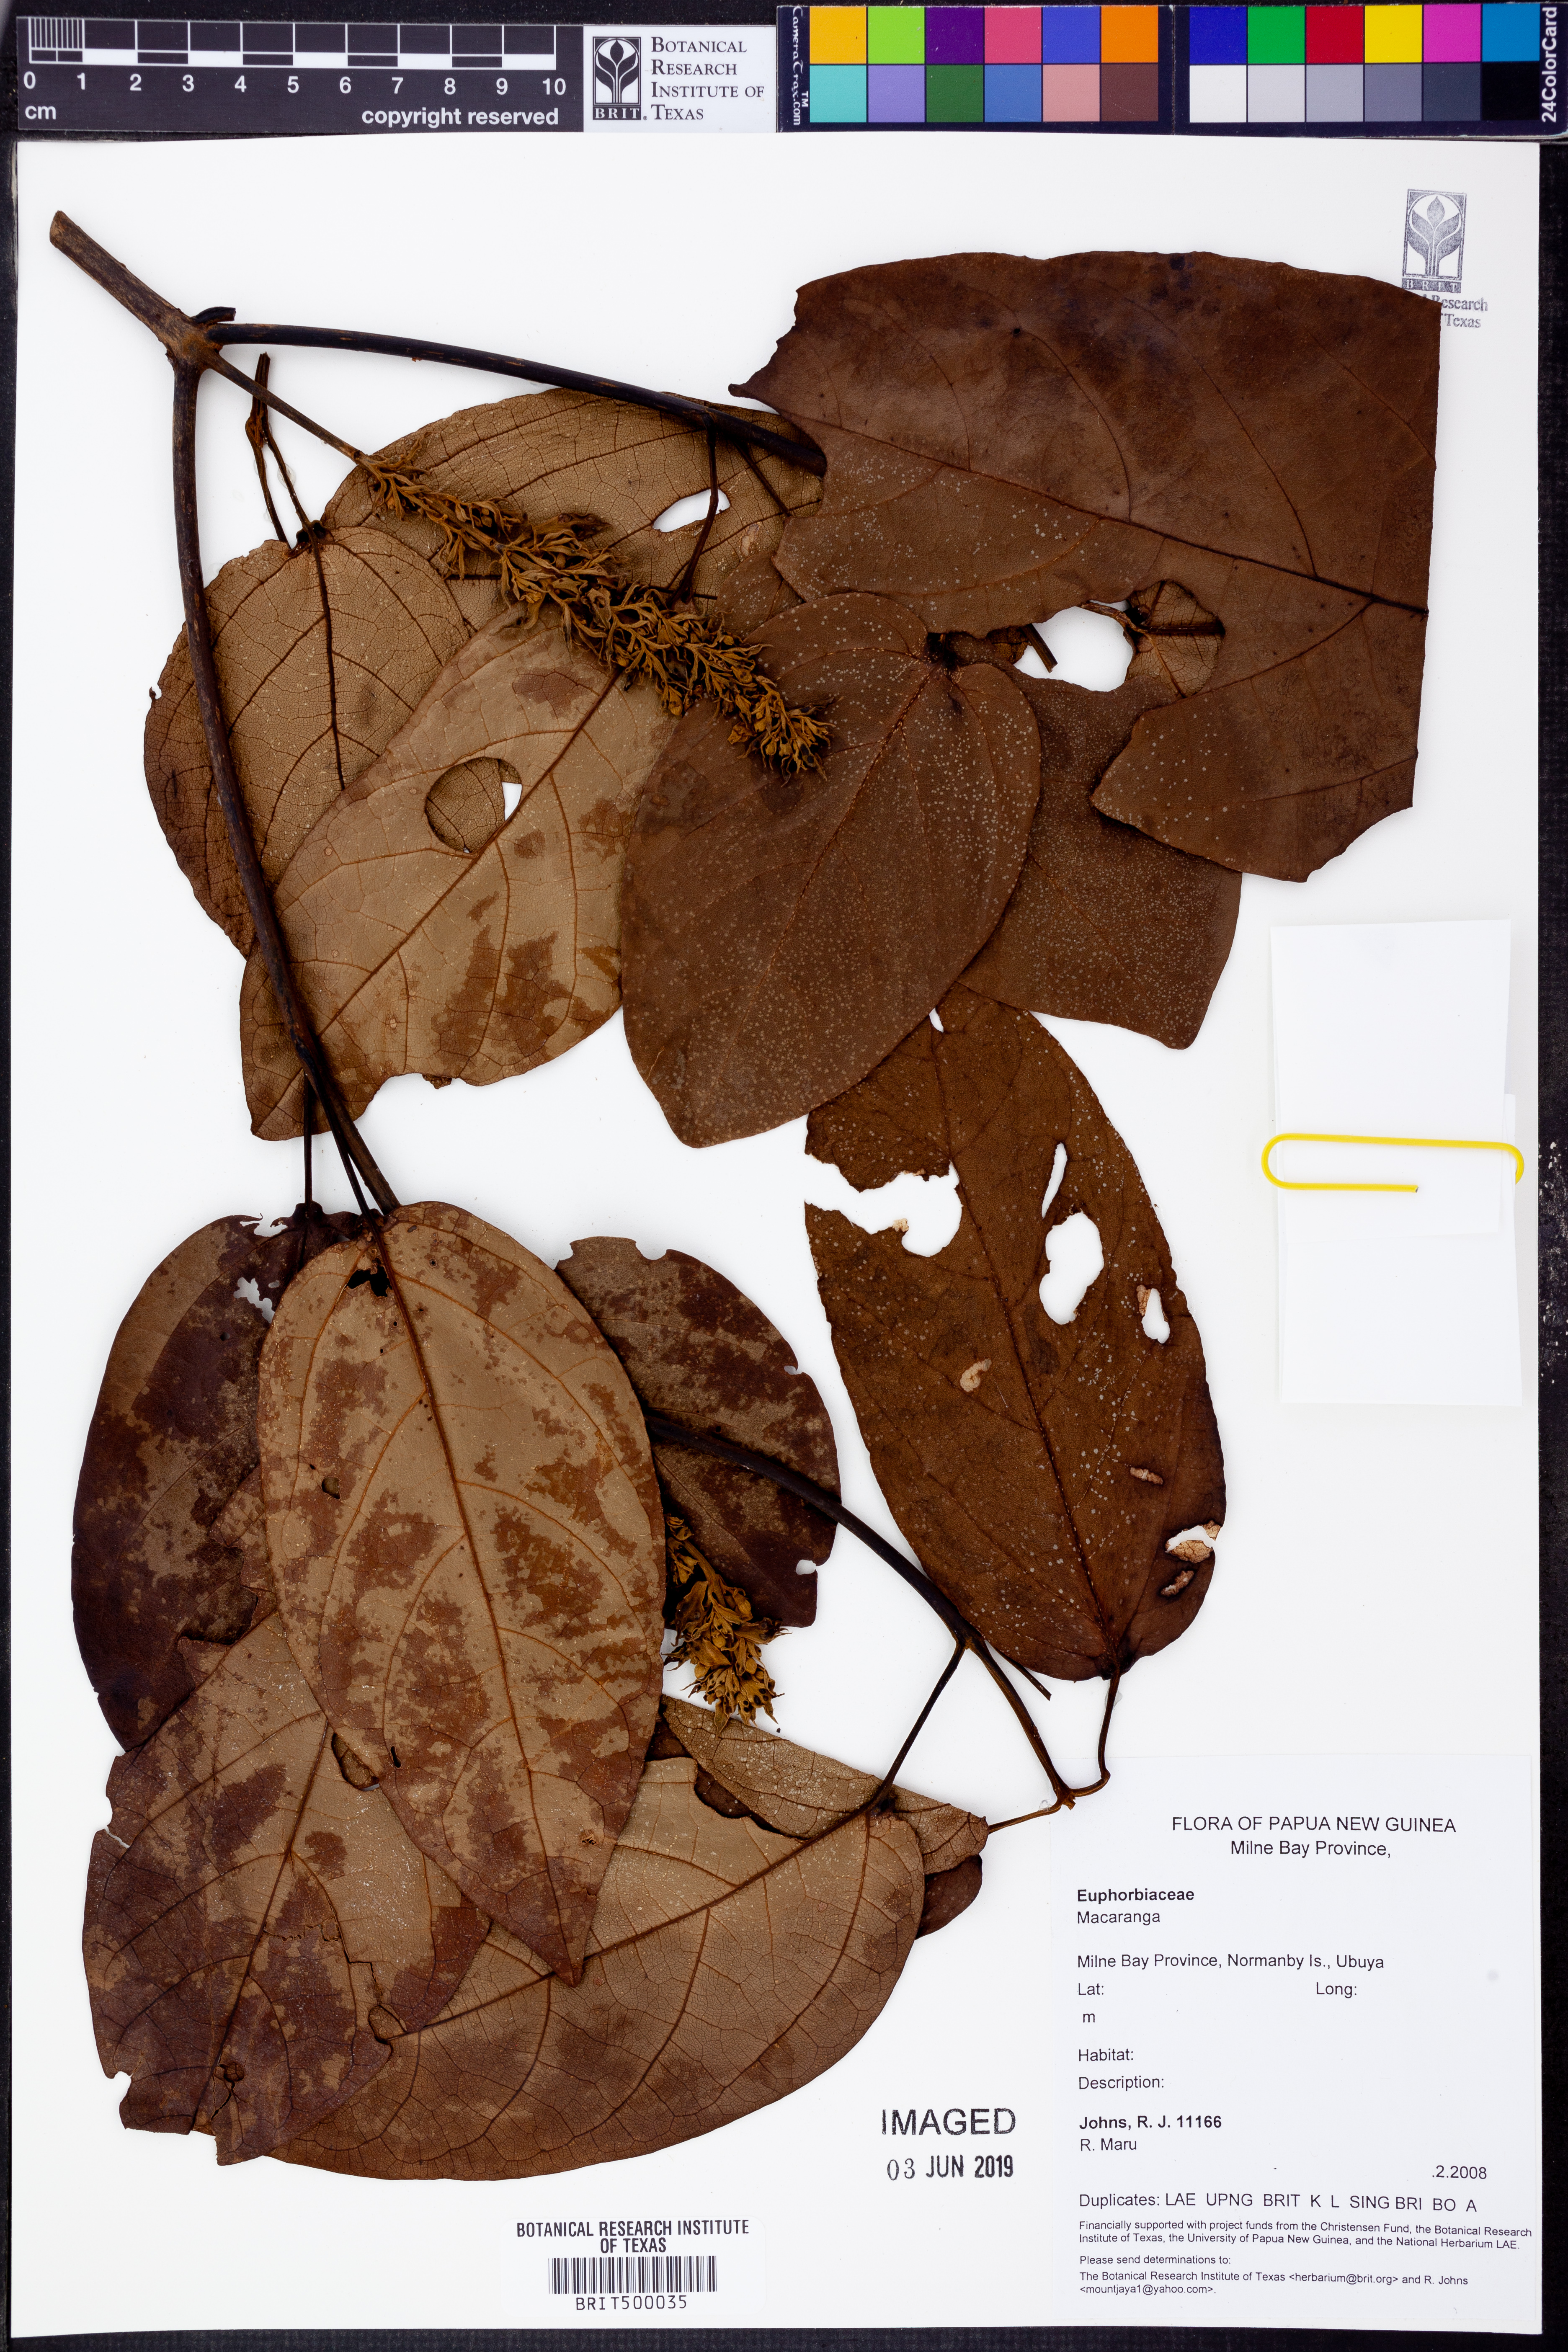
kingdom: Plantae
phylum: Tracheophyta
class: Magnoliopsida
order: Malpighiales
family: Euphorbiaceae
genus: Macaranga
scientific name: Macaranga
